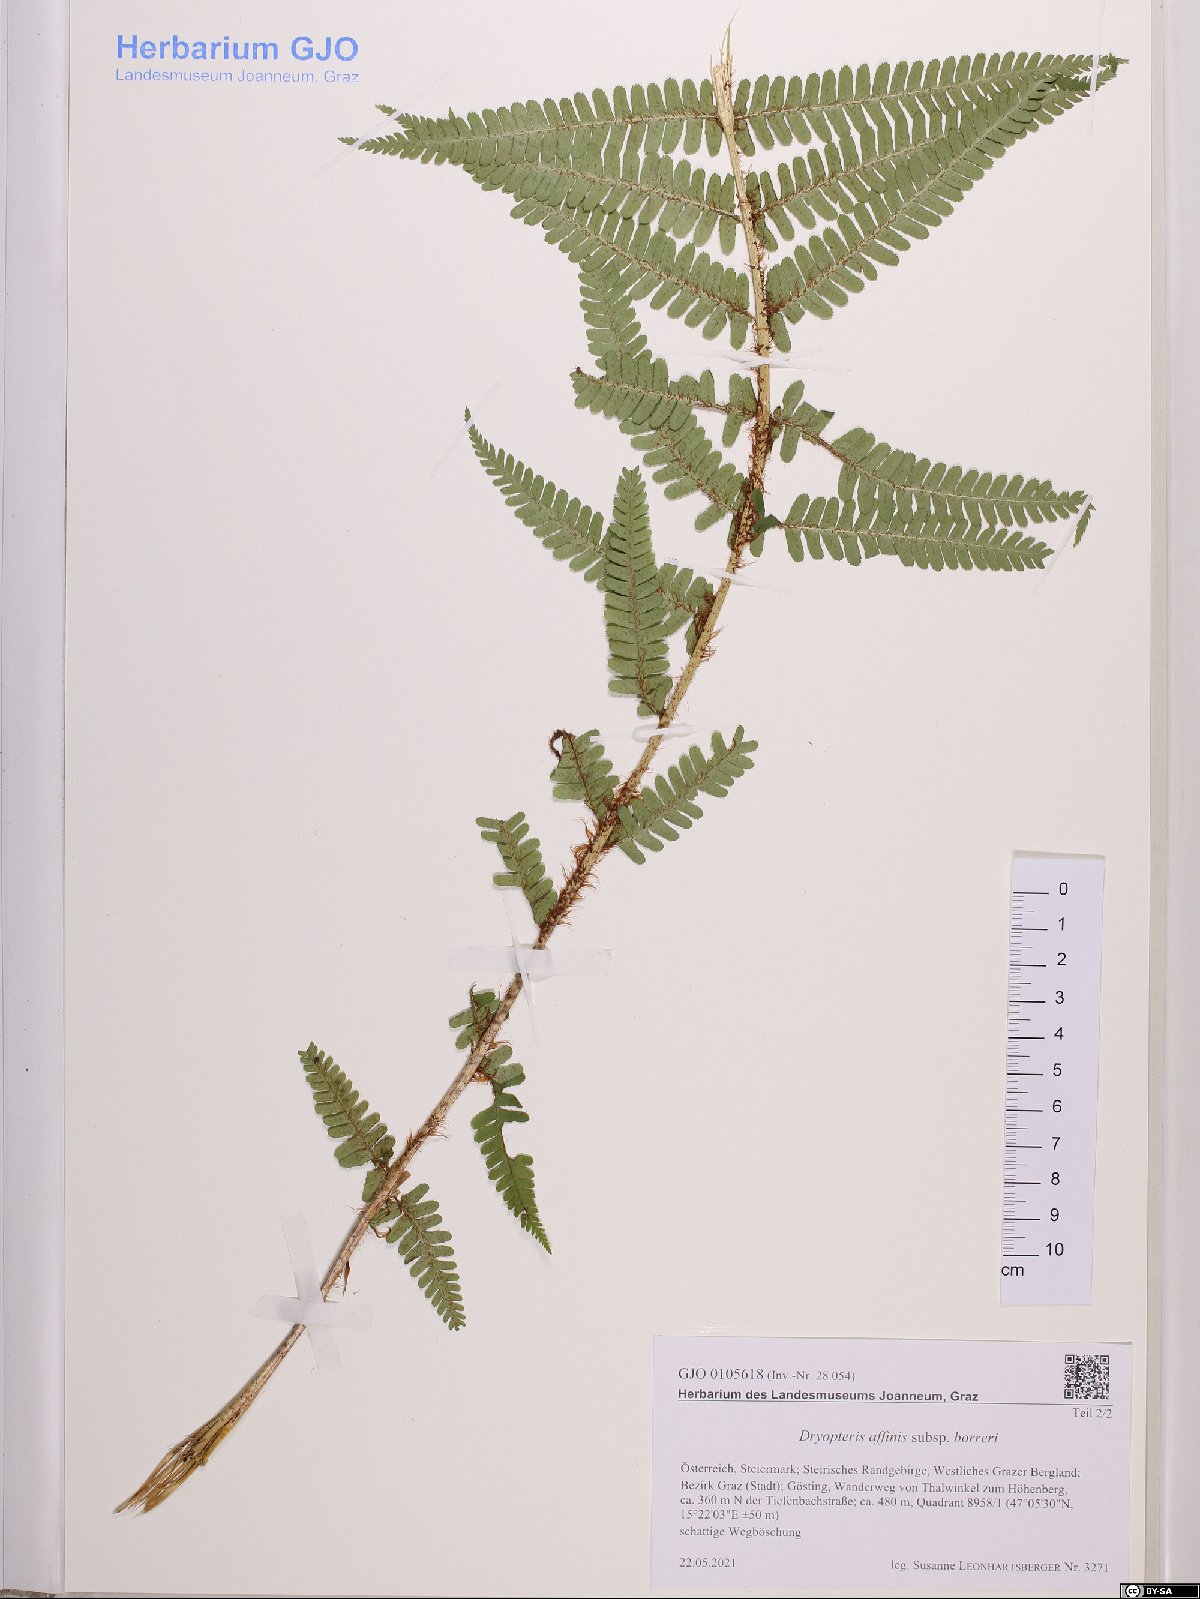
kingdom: Plantae
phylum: Tracheophyta
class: Polypodiopsida
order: Polypodiales
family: Dryopteridaceae
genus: Dryopteris
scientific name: Dryopteris borreri
